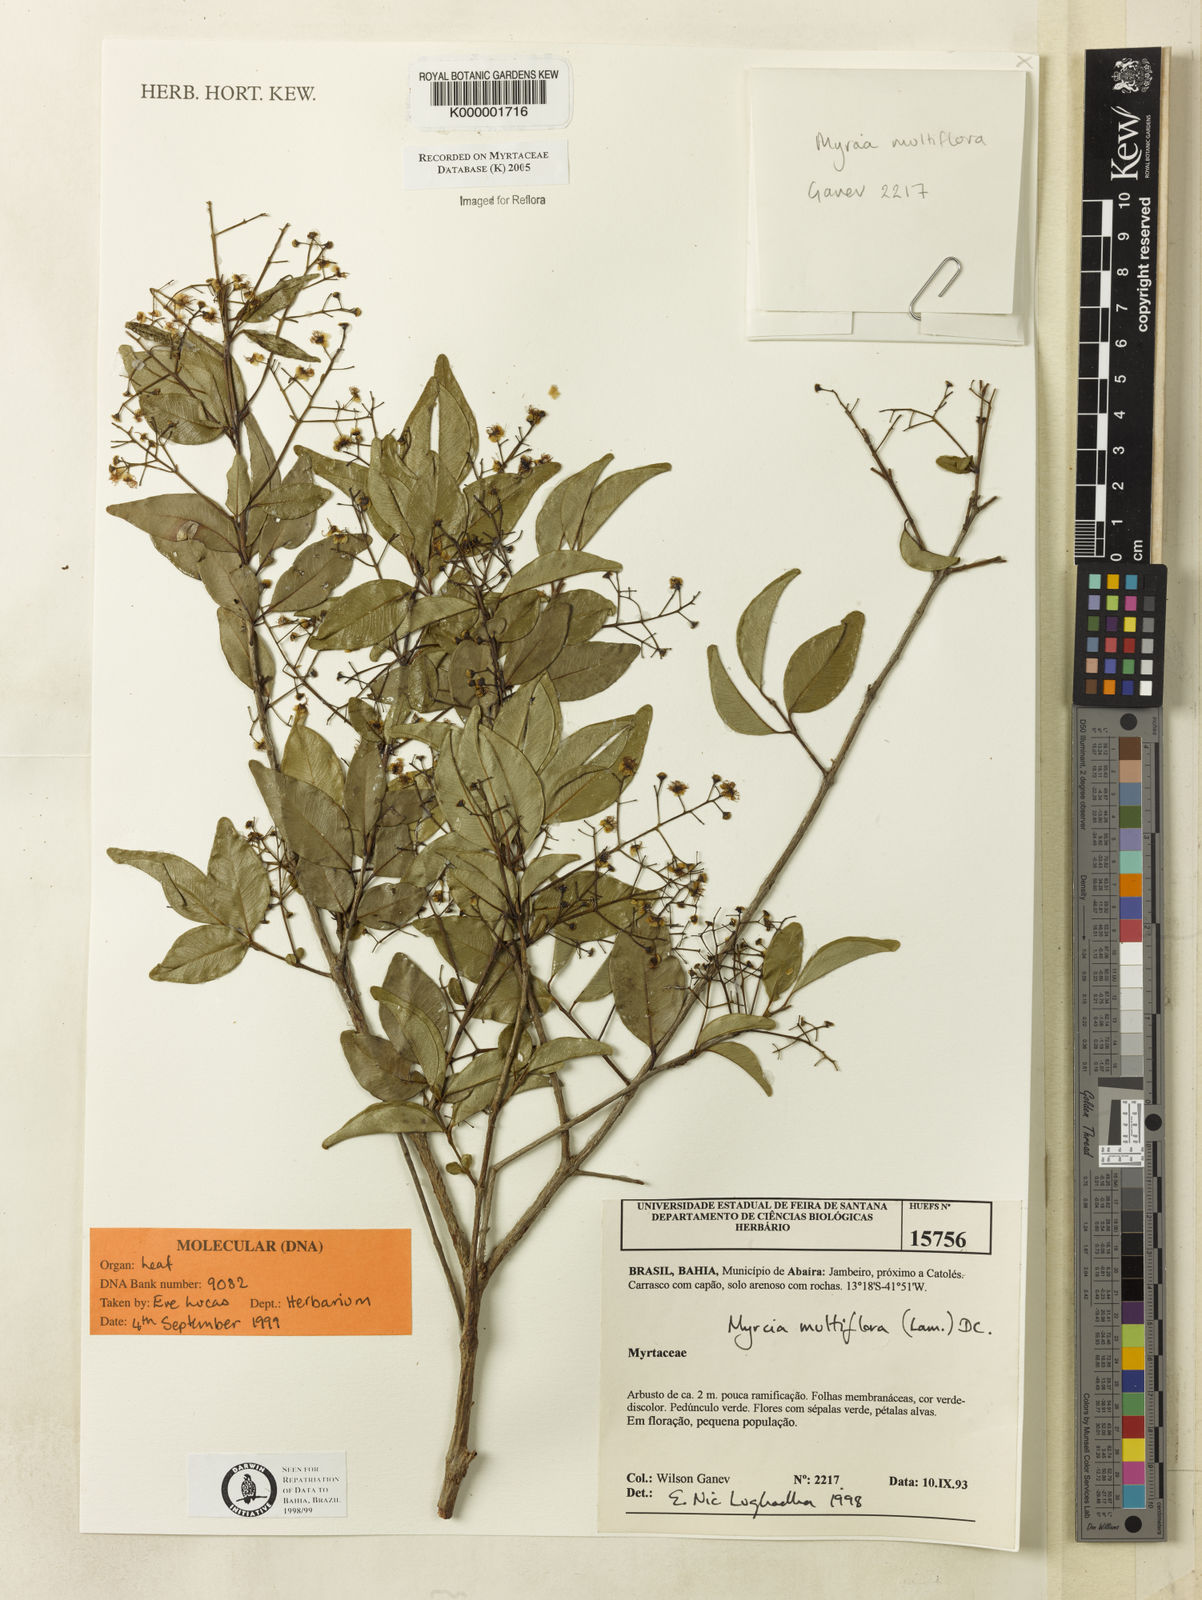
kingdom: Plantae
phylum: Tracheophyta
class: Magnoliopsida
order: Myrtales
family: Myrtaceae
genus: Myrcia
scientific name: Myrcia multiflora
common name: Pedra hume
